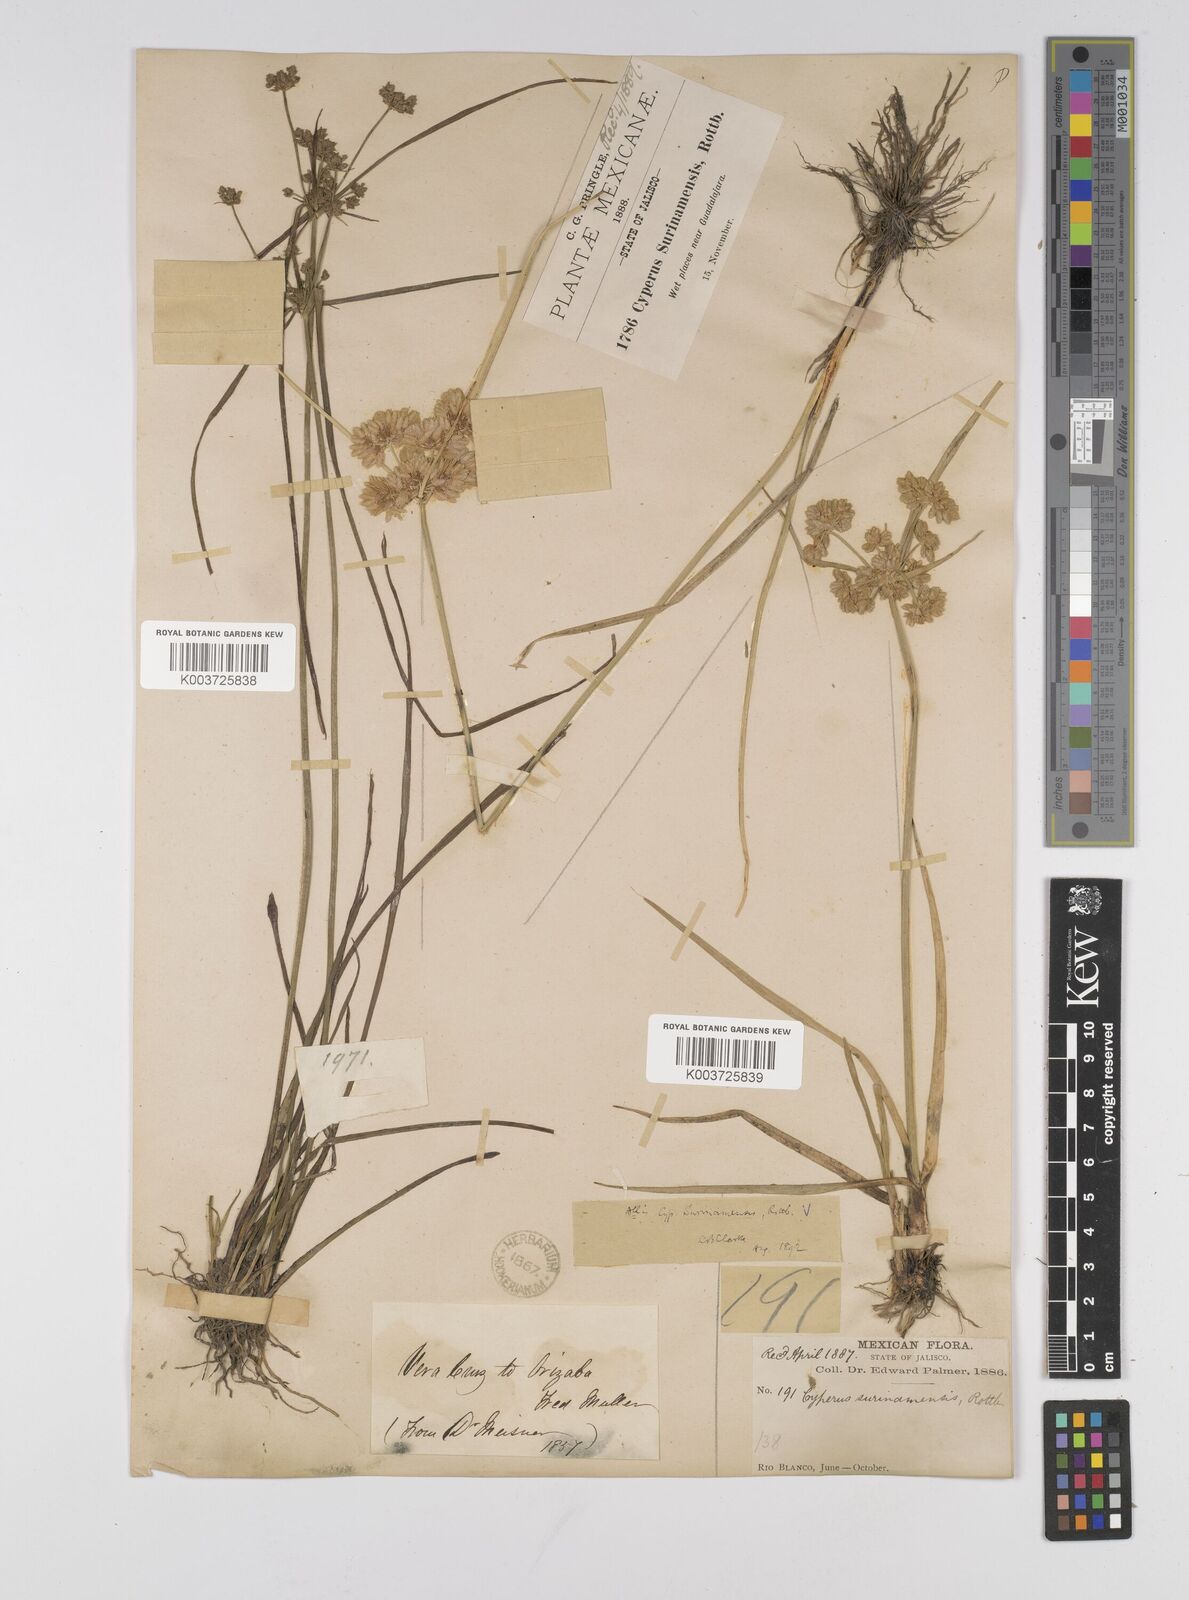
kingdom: Plantae
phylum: Tracheophyta
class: Liliopsida
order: Poales
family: Cyperaceae
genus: Cyperus
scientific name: Cyperus surinamensis
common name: Tropical flat sedge
